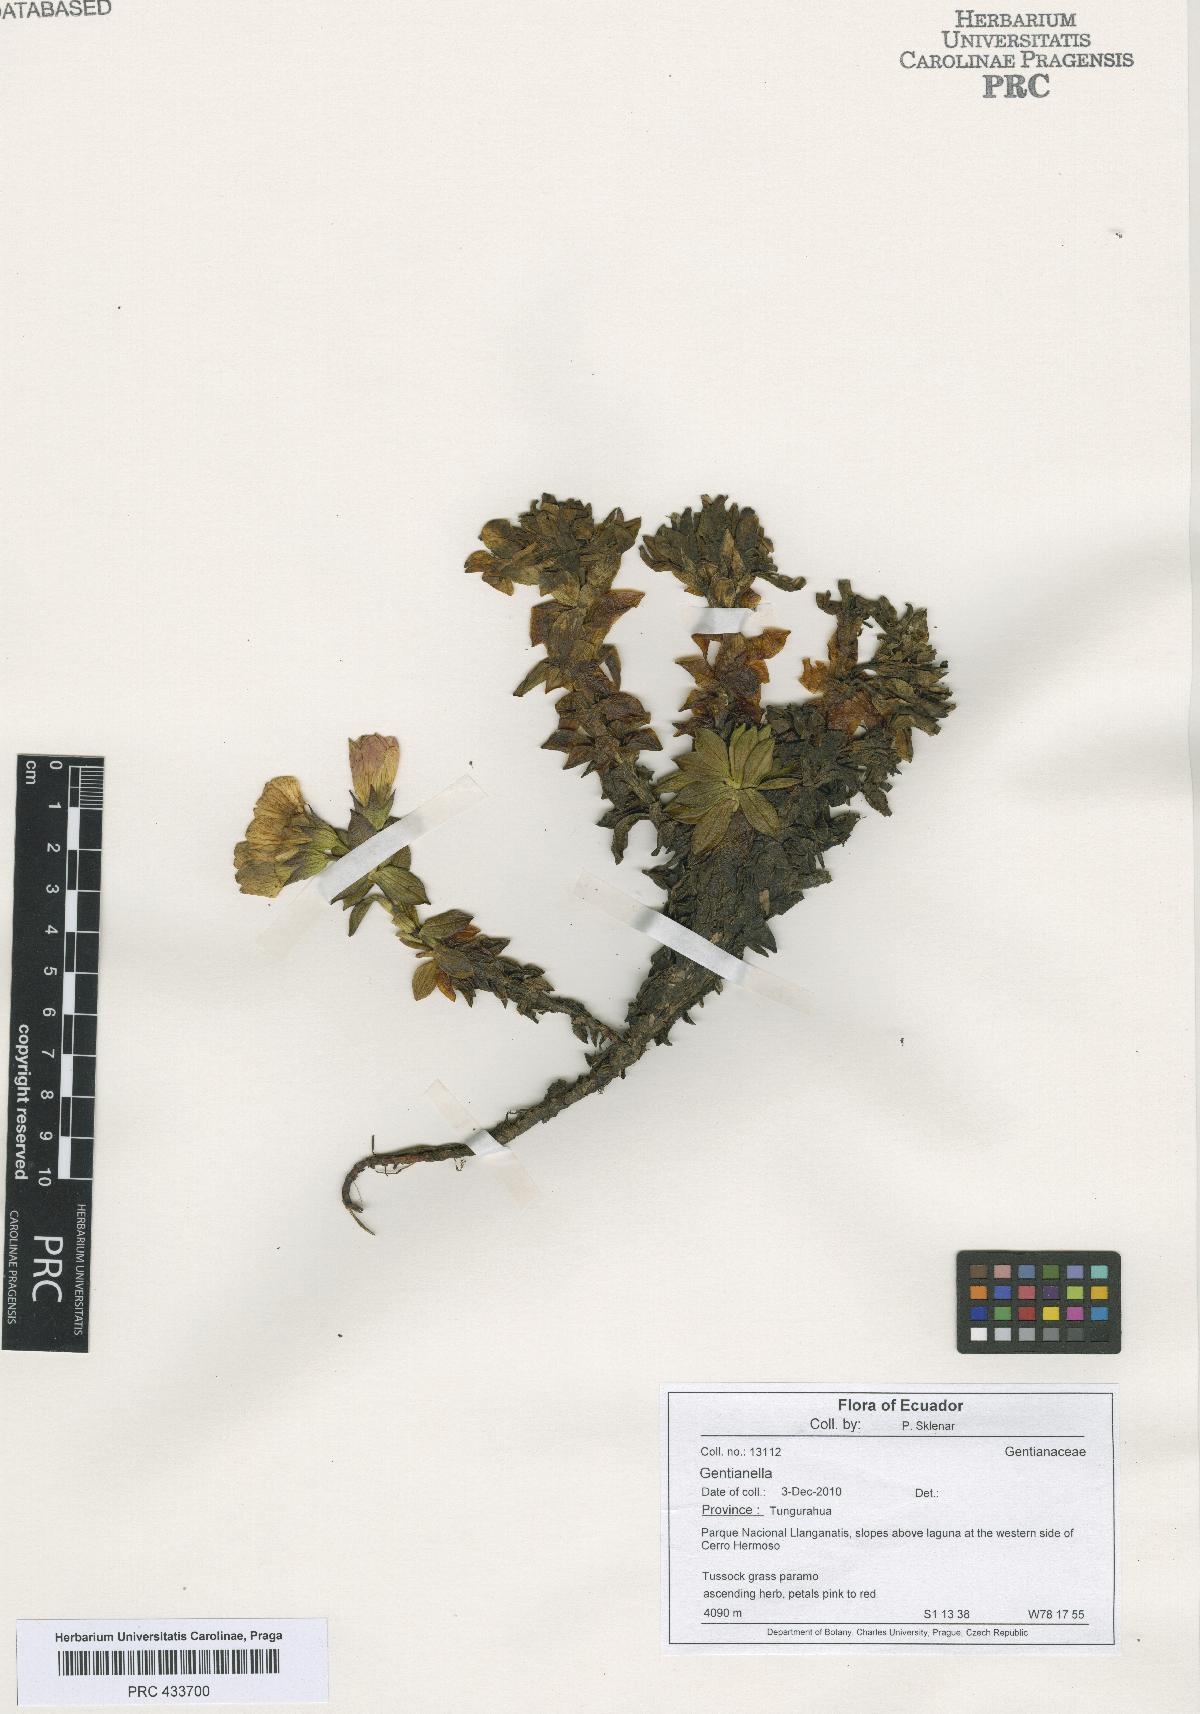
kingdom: Plantae
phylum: Tracheophyta
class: Magnoliopsida
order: Gentianales
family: Gentianaceae
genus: Gentianella
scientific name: Gentianella
